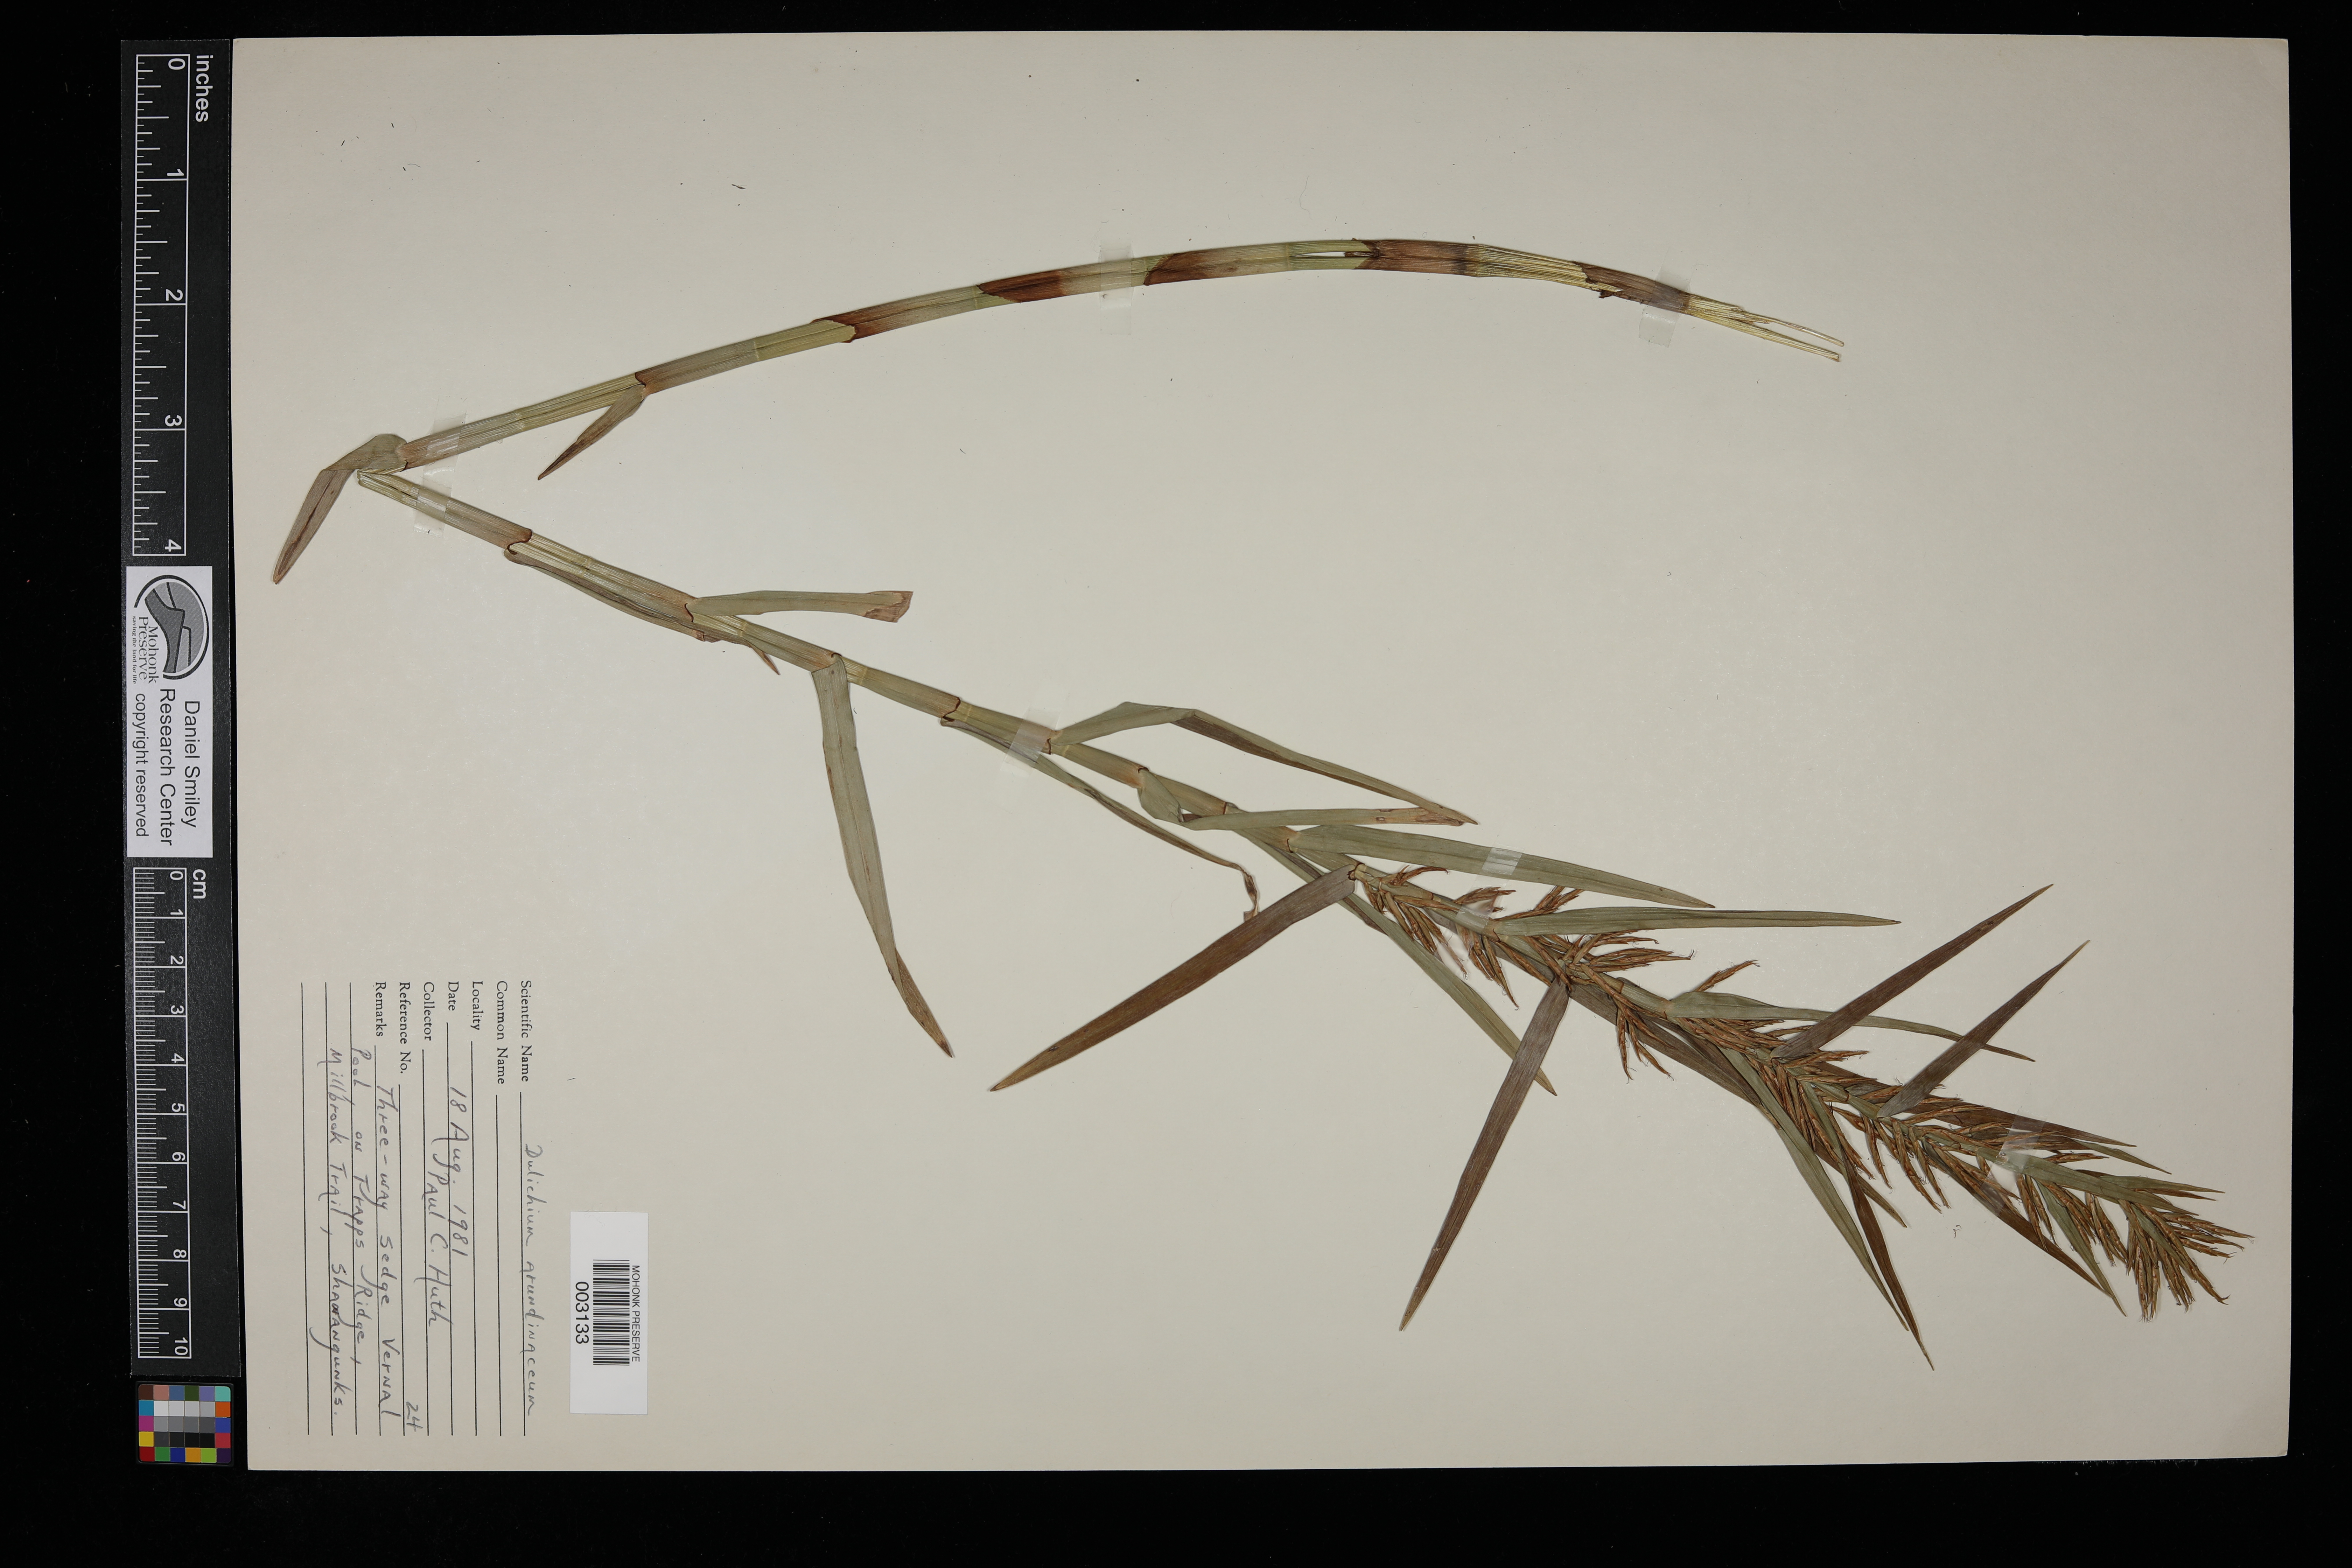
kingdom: Plantae
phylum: Tracheophyta
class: Liliopsida
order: Poales
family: Cyperaceae
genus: Dulichium
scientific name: Dulichium arundinaceum
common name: Three-way sedge
